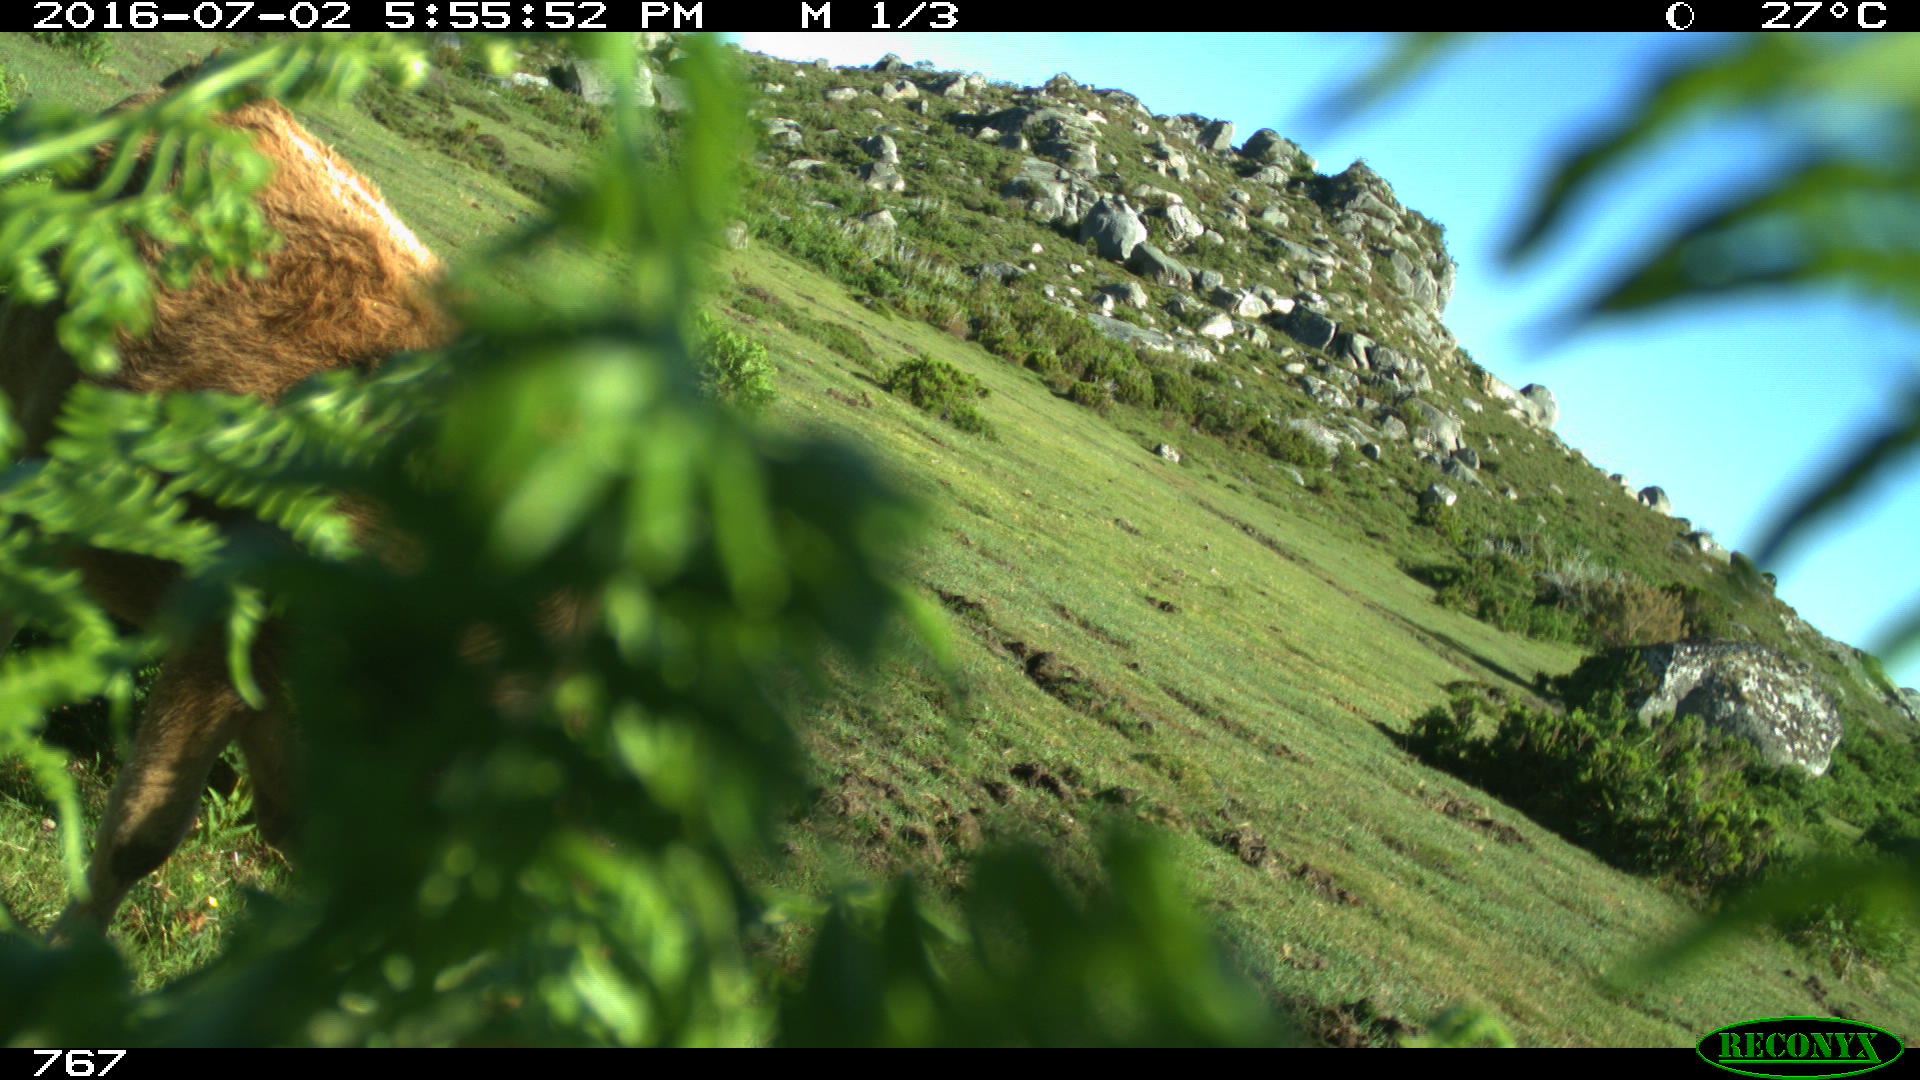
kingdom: Animalia
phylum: Chordata
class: Mammalia
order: Artiodactyla
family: Bovidae
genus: Bos
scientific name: Bos taurus
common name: Domesticated cattle
